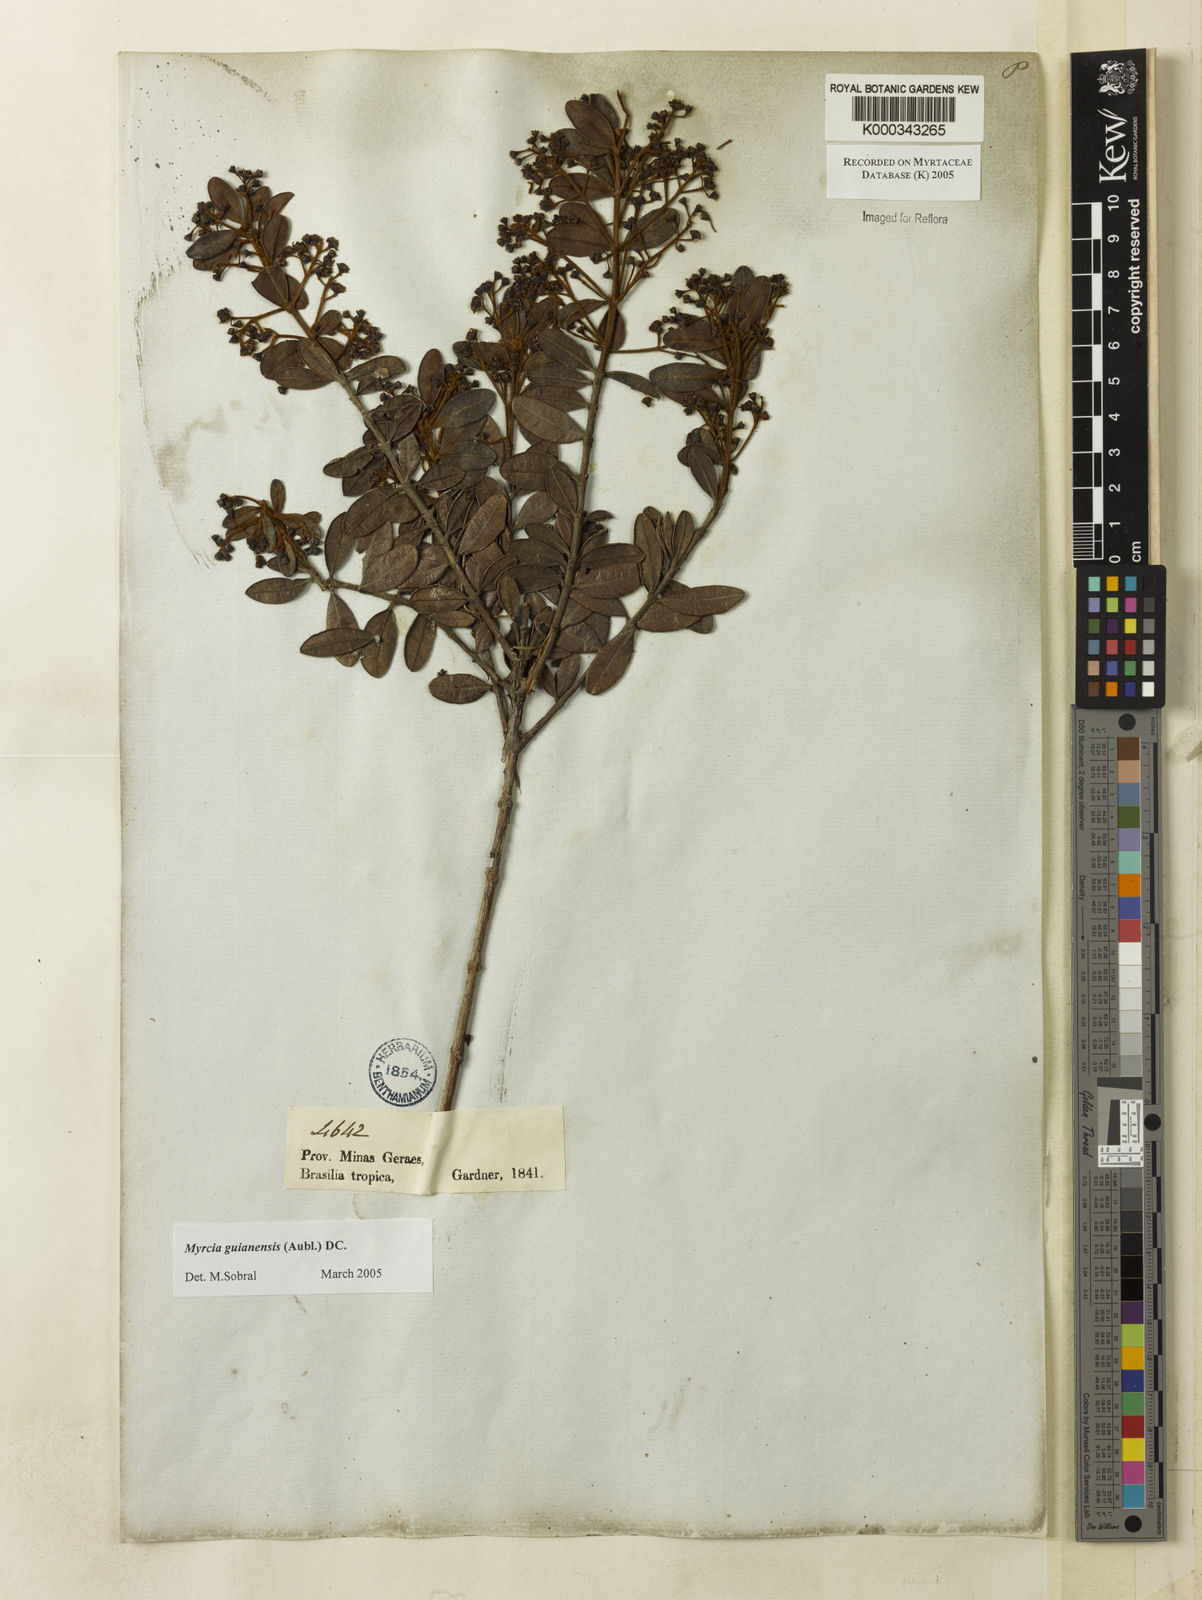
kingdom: Plantae
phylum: Tracheophyta
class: Magnoliopsida
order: Myrtales
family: Myrtaceae
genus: Myrcia
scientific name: Myrcia guianensis
